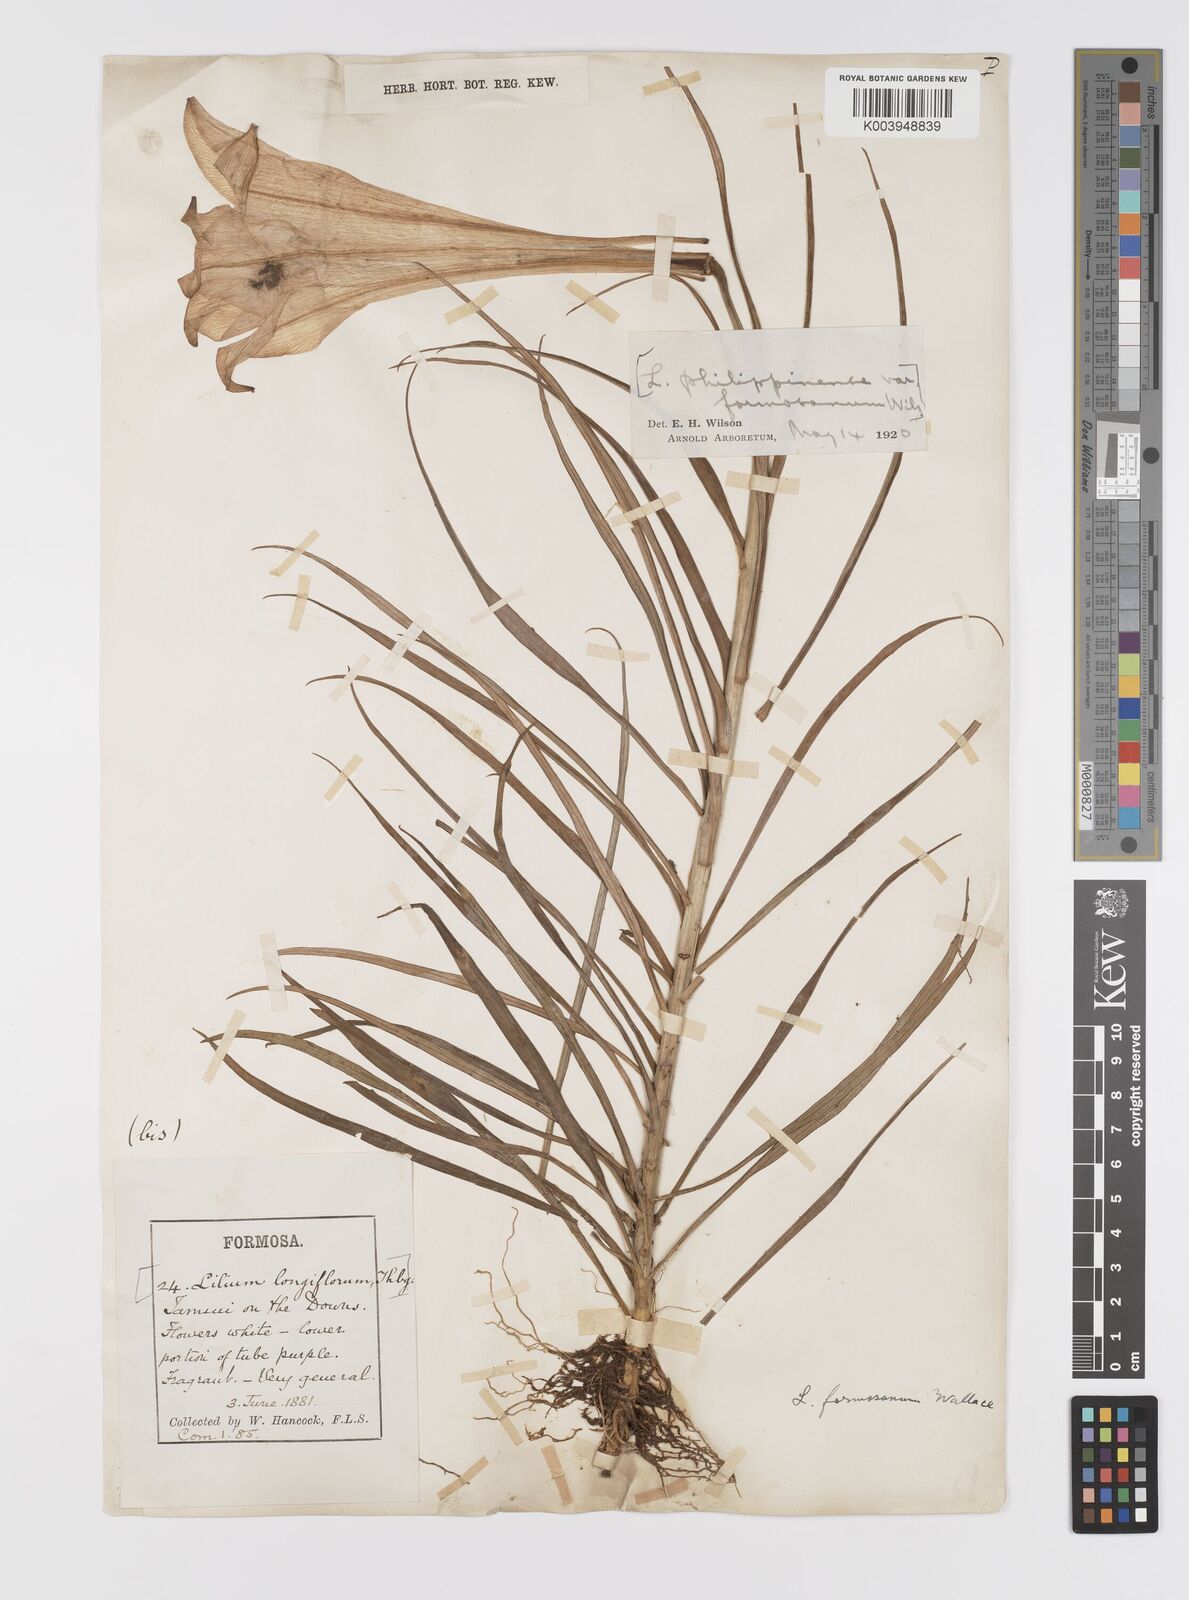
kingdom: Plantae
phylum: Tracheophyta
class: Liliopsida
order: Liliales
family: Liliaceae
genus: Lilium
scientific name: Lilium formosanum
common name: Formosa lily
